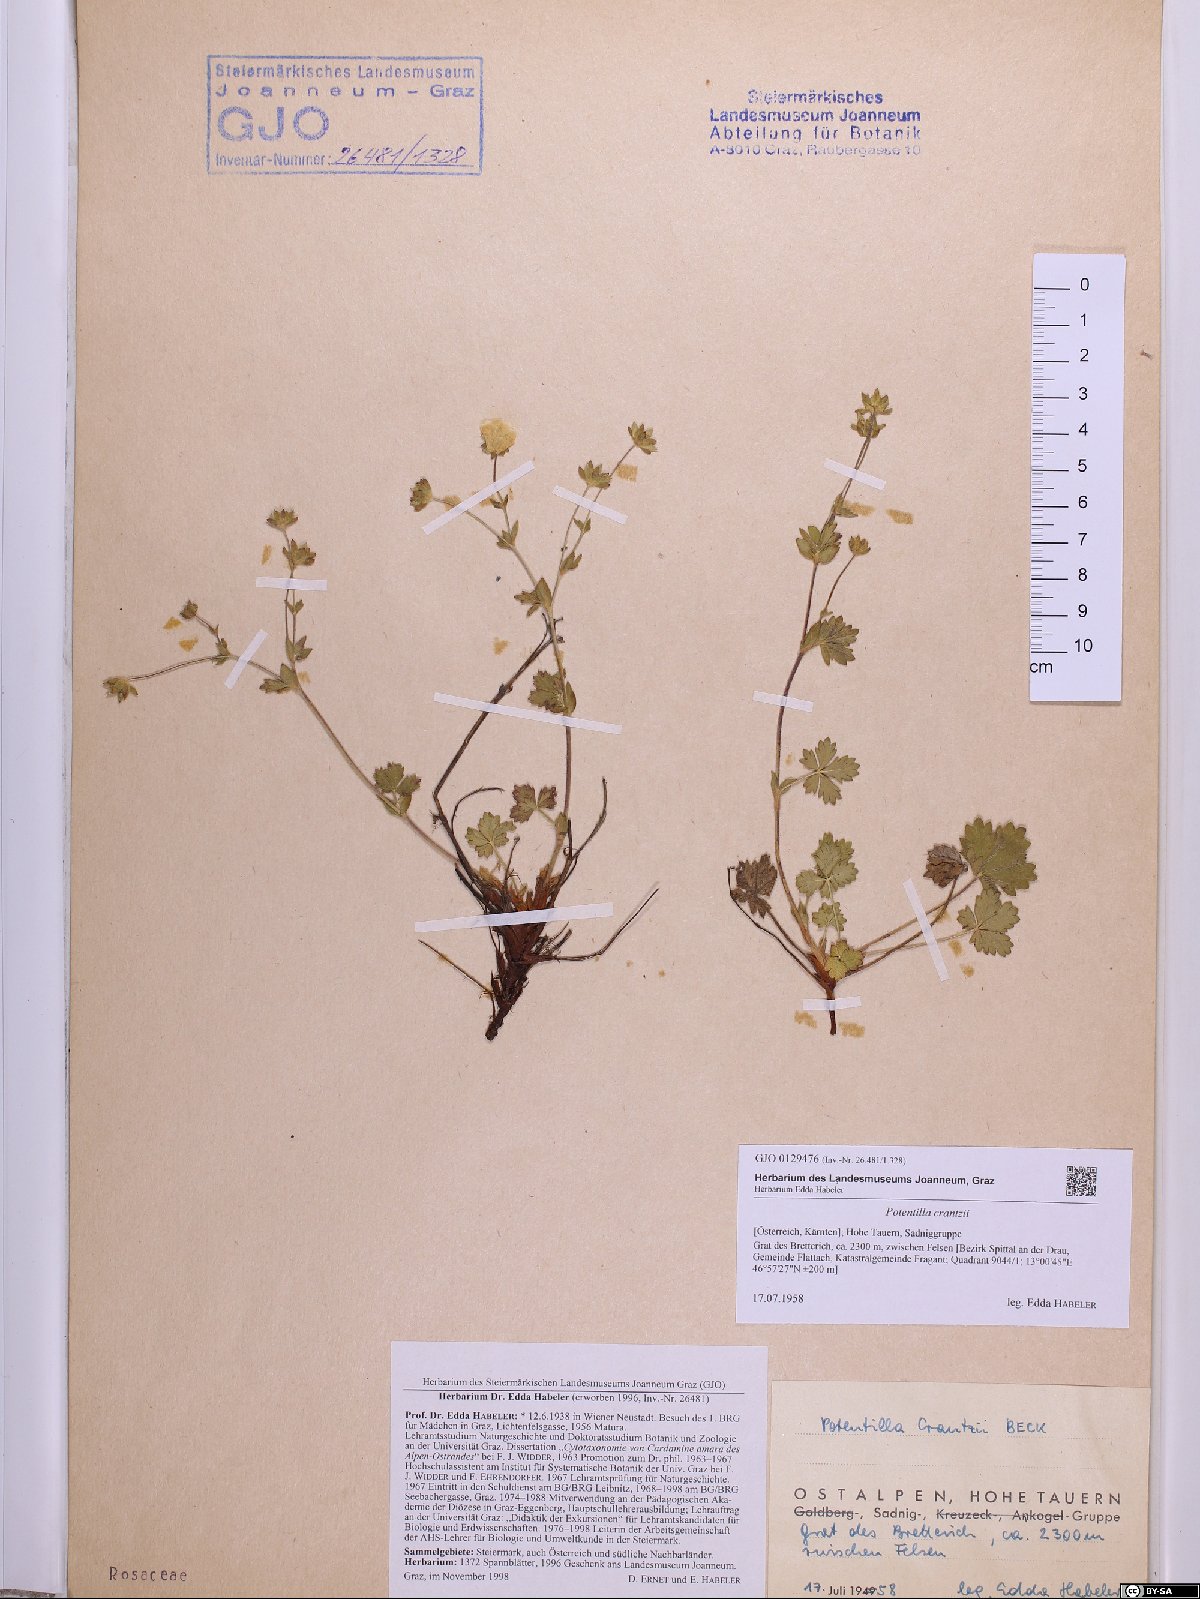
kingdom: Plantae
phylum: Tracheophyta
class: Magnoliopsida
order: Rosales
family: Rosaceae
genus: Potentilla
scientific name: Potentilla crantzii
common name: Alpine cinquefoil
